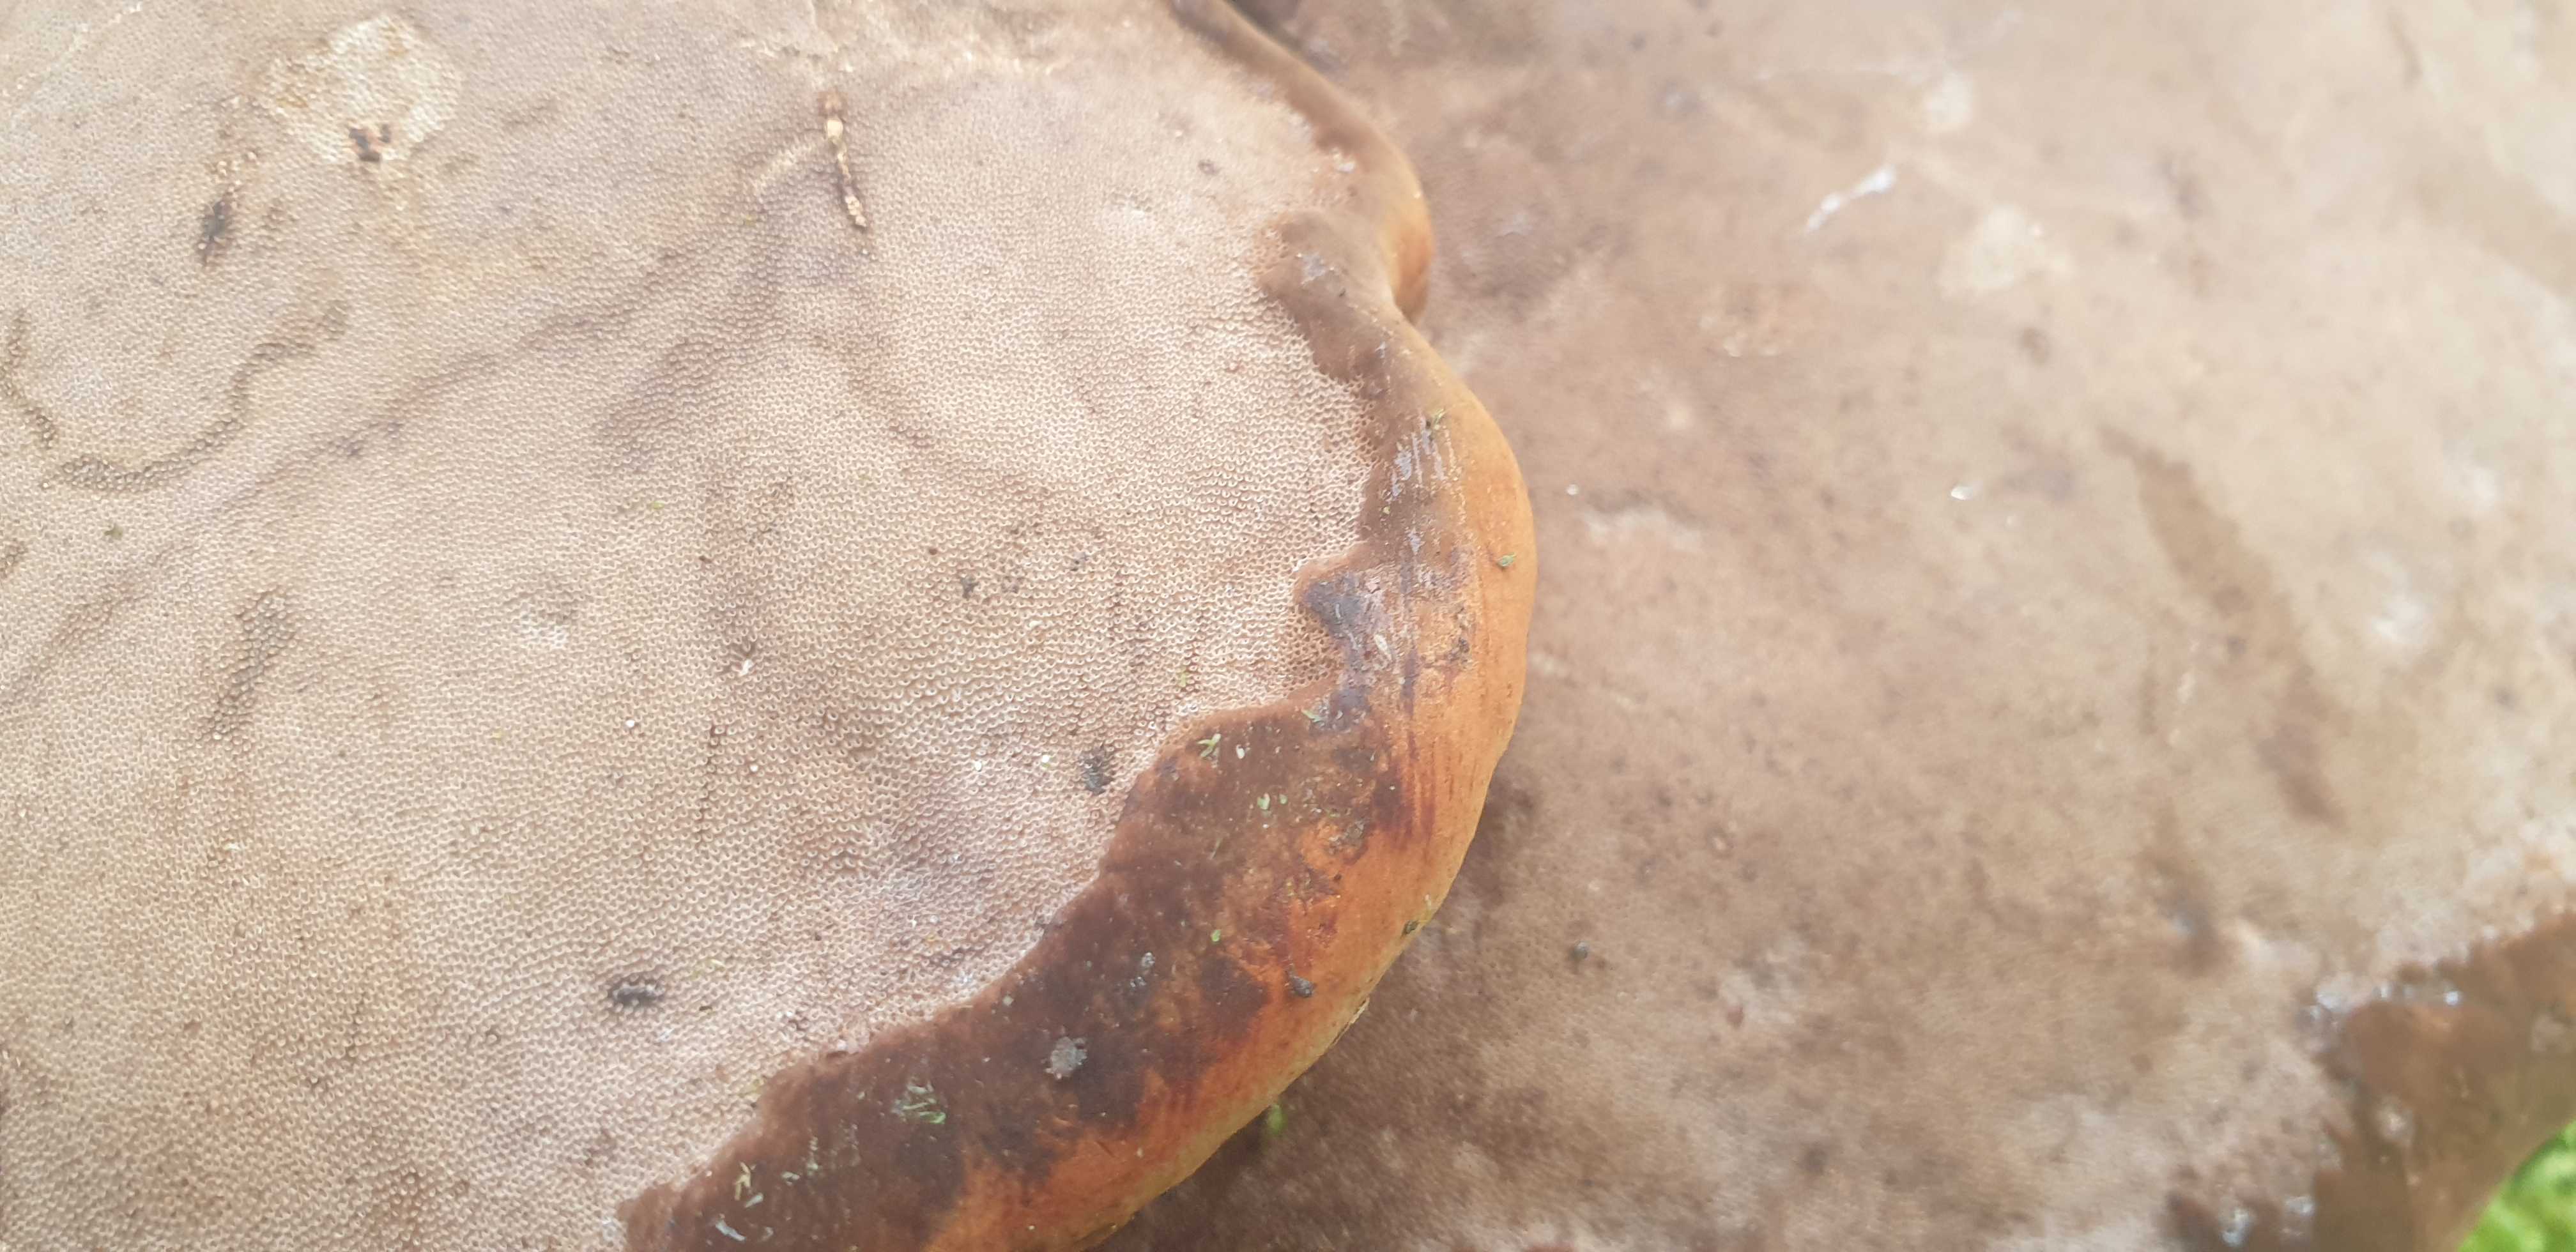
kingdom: Fungi
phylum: Basidiomycota
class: Agaricomycetes
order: Polyporales
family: Polyporaceae
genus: Fomes
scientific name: Fomes fomentarius
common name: tøndersvamp
